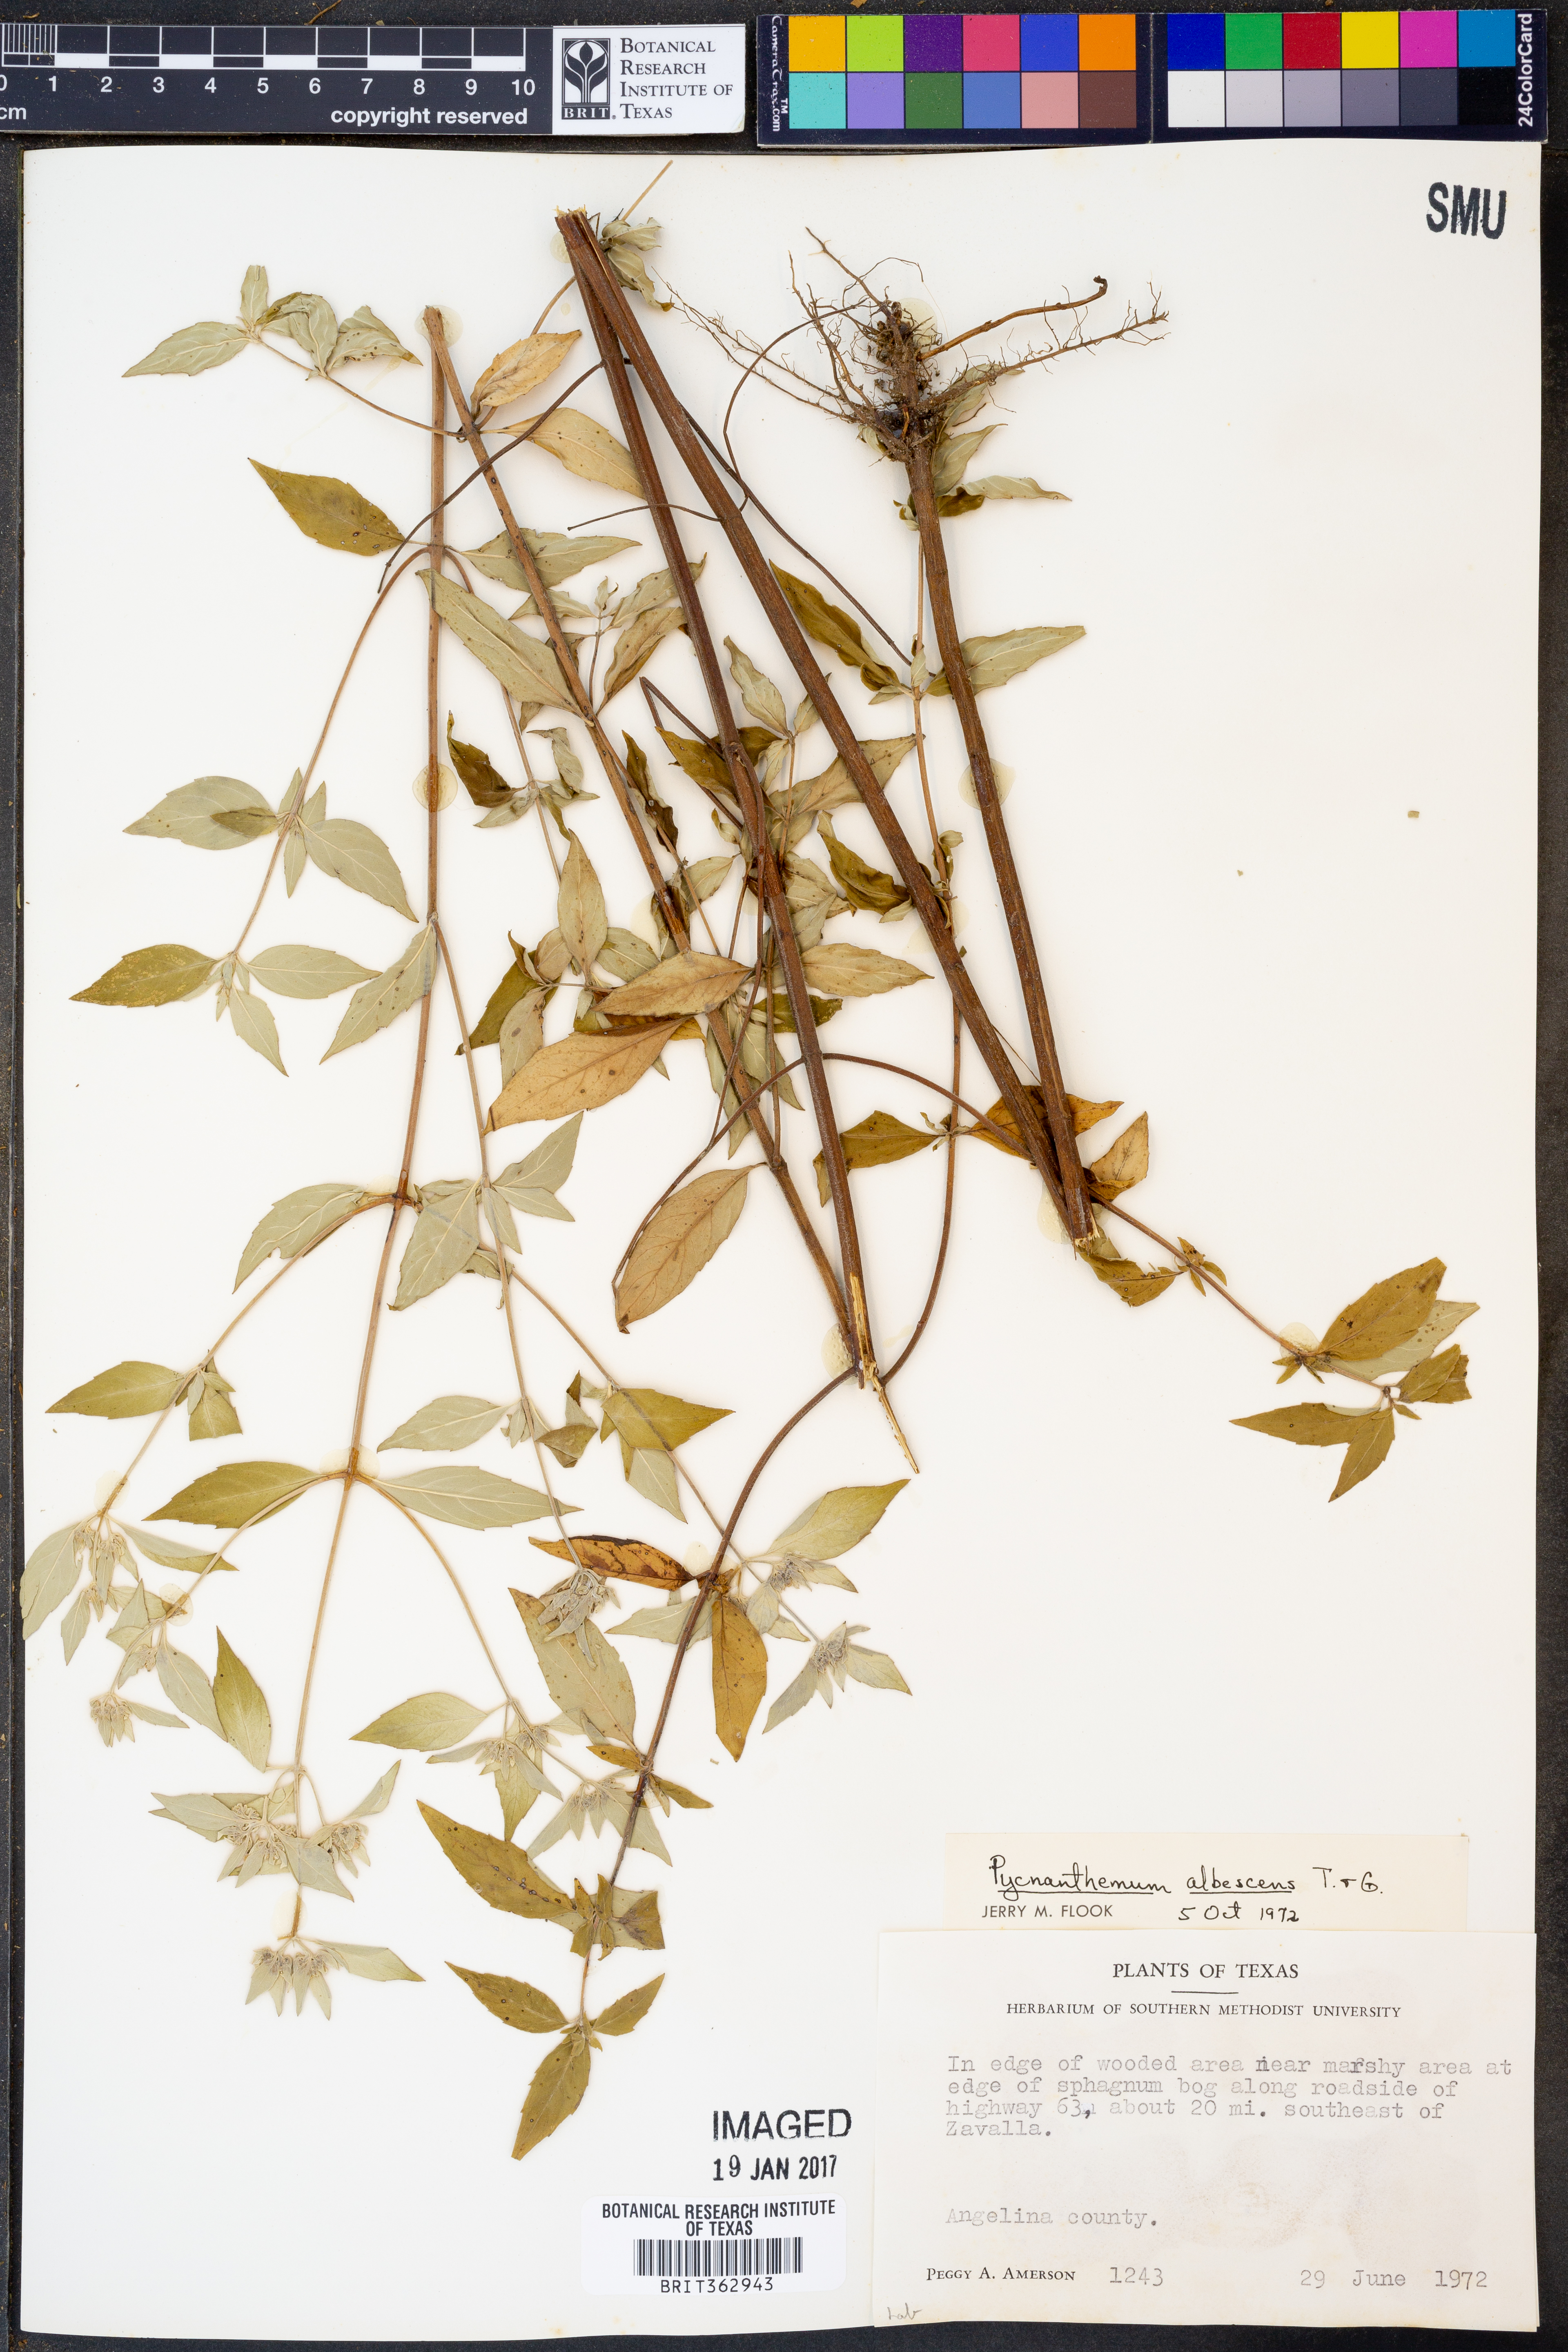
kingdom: Plantae
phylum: Tracheophyta
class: Magnoliopsida
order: Lamiales
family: Lamiaceae
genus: Pycnanthemum
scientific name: Pycnanthemum albescens
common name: White-leaf mountain-mint
